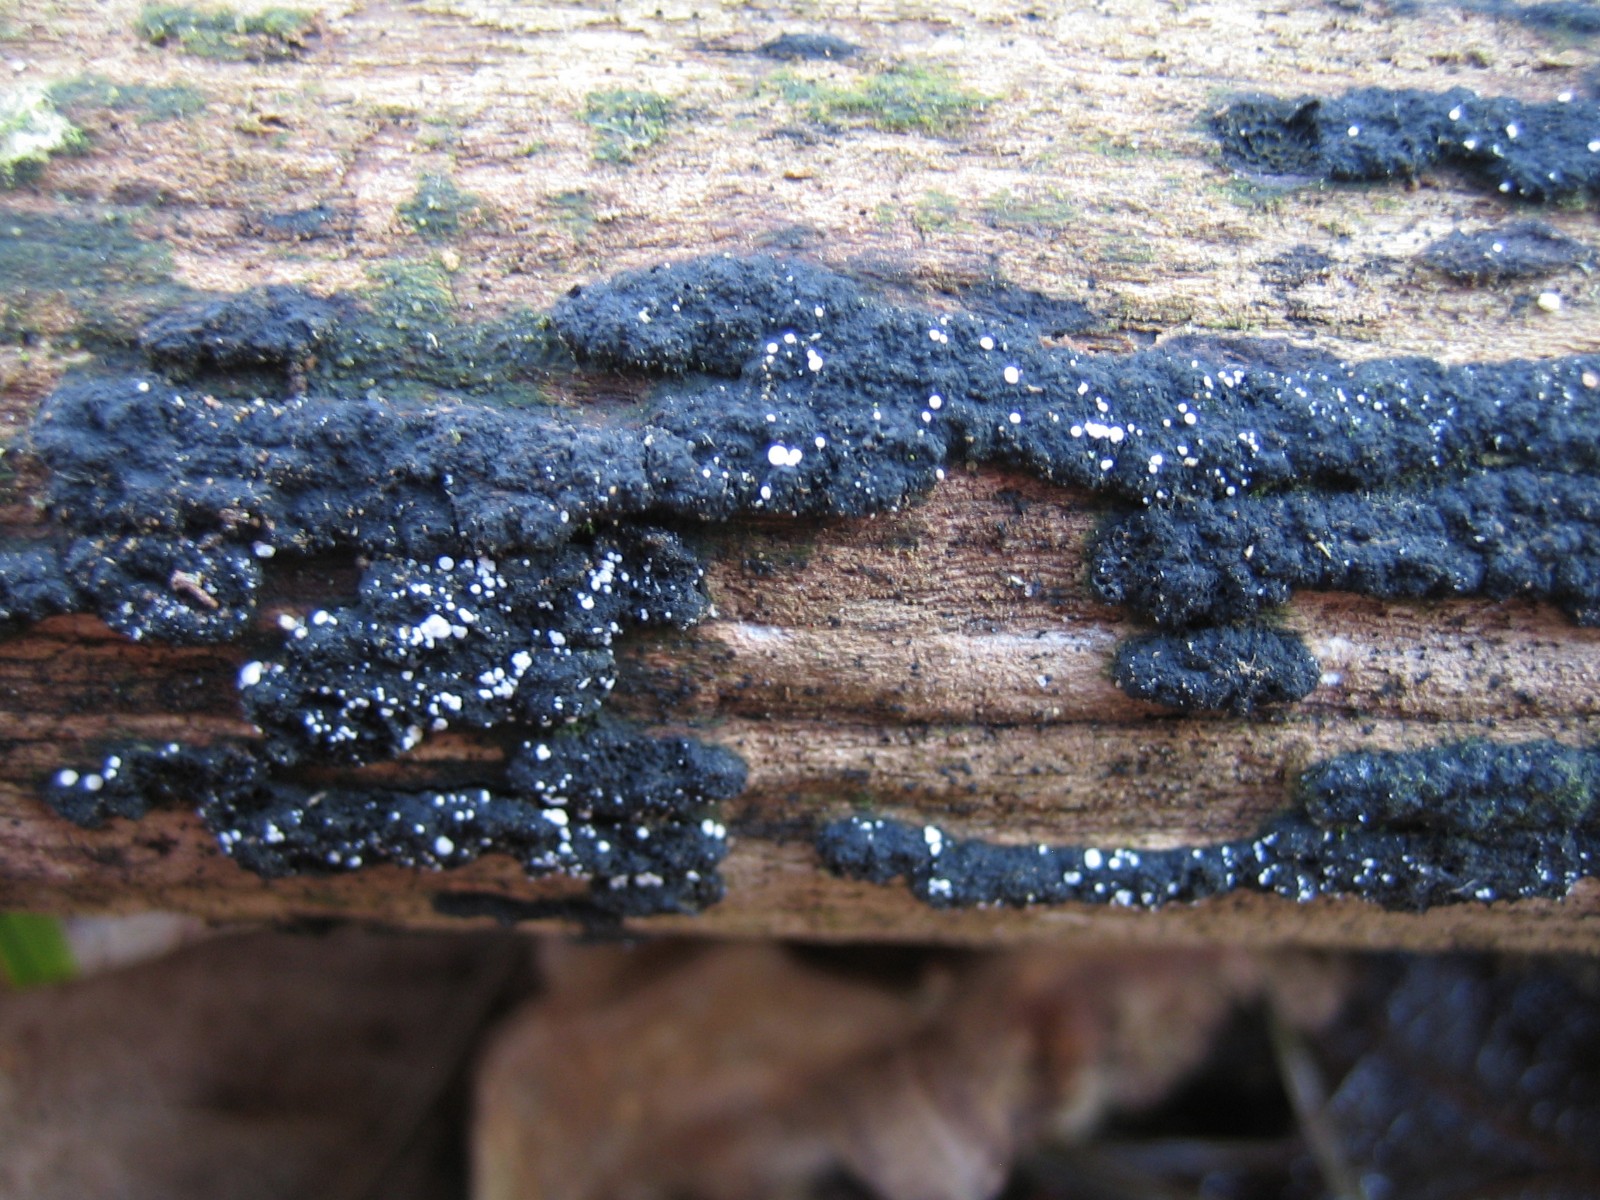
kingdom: Fungi
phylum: Ascomycota
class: Leotiomycetes
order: Helotiales
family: Hyaloscyphaceae
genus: Polydesmia
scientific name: Polydesmia pruinosa
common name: dunskive
